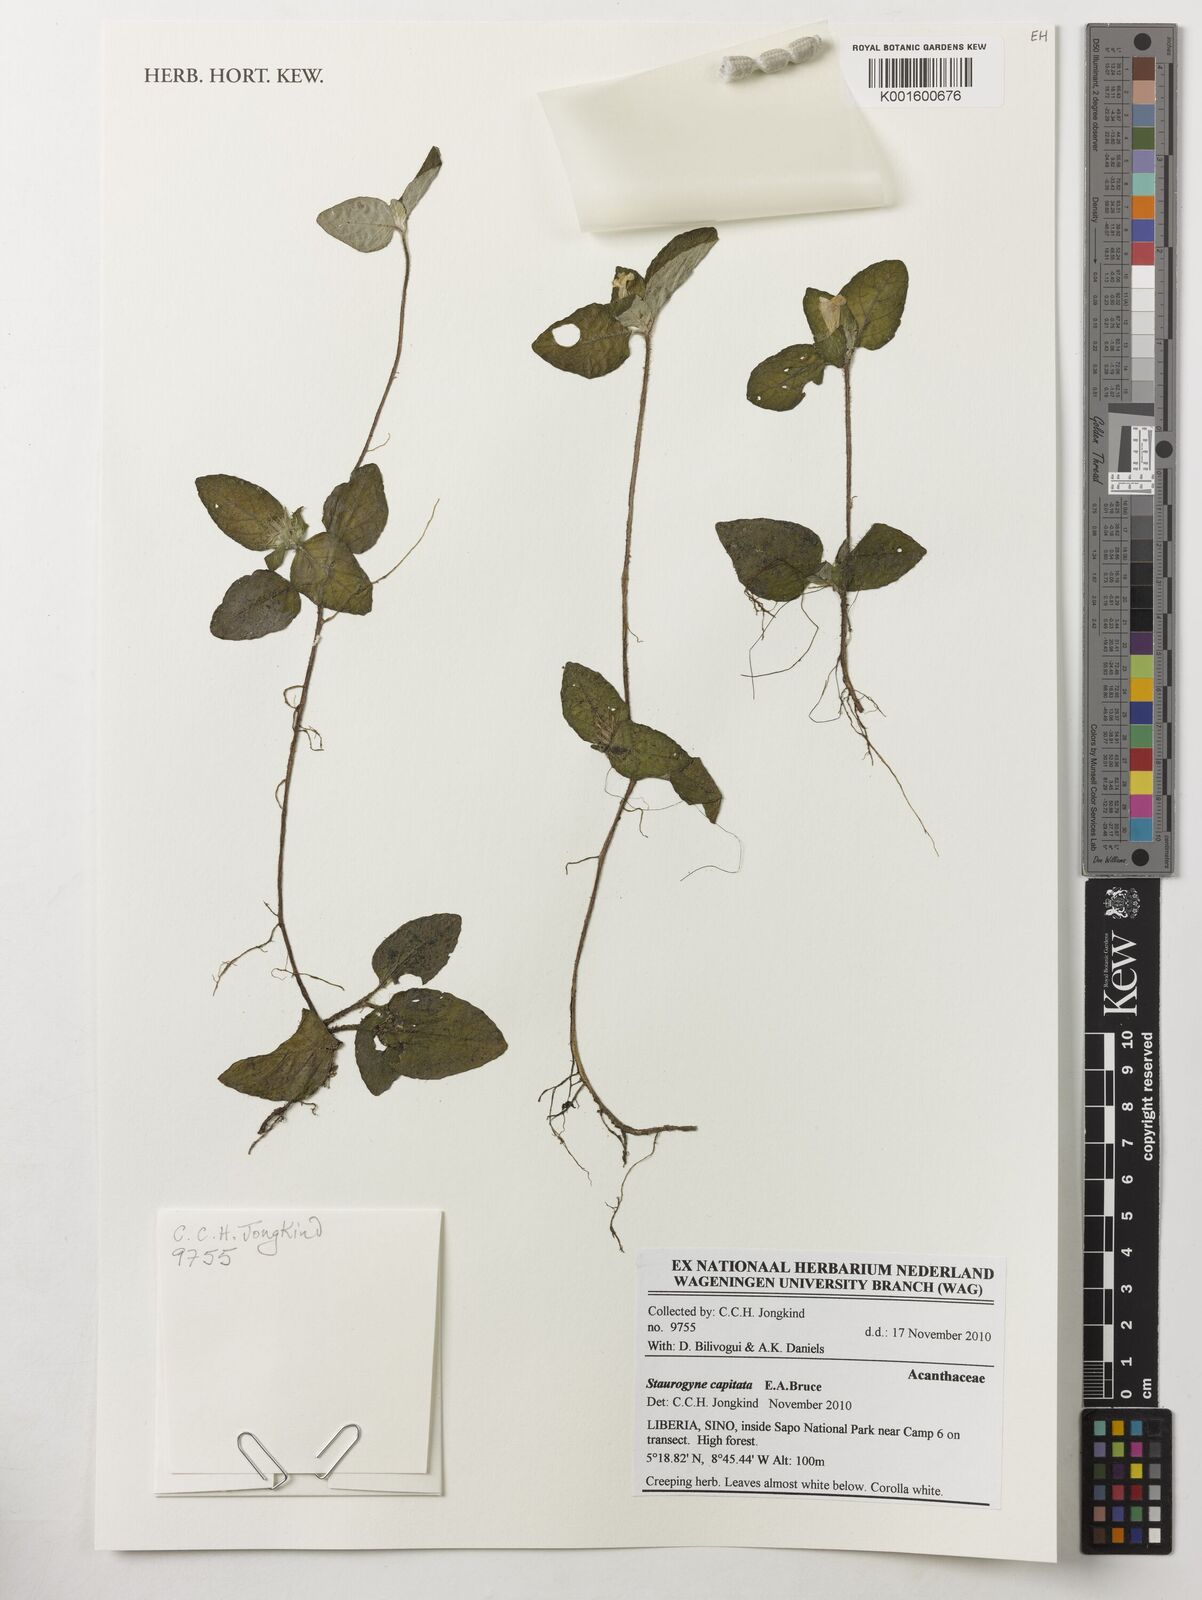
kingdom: Plantae
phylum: Tracheophyta
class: Magnoliopsida
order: Lamiales
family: Acanthaceae
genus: Staurogyne
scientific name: Staurogyne capitata
